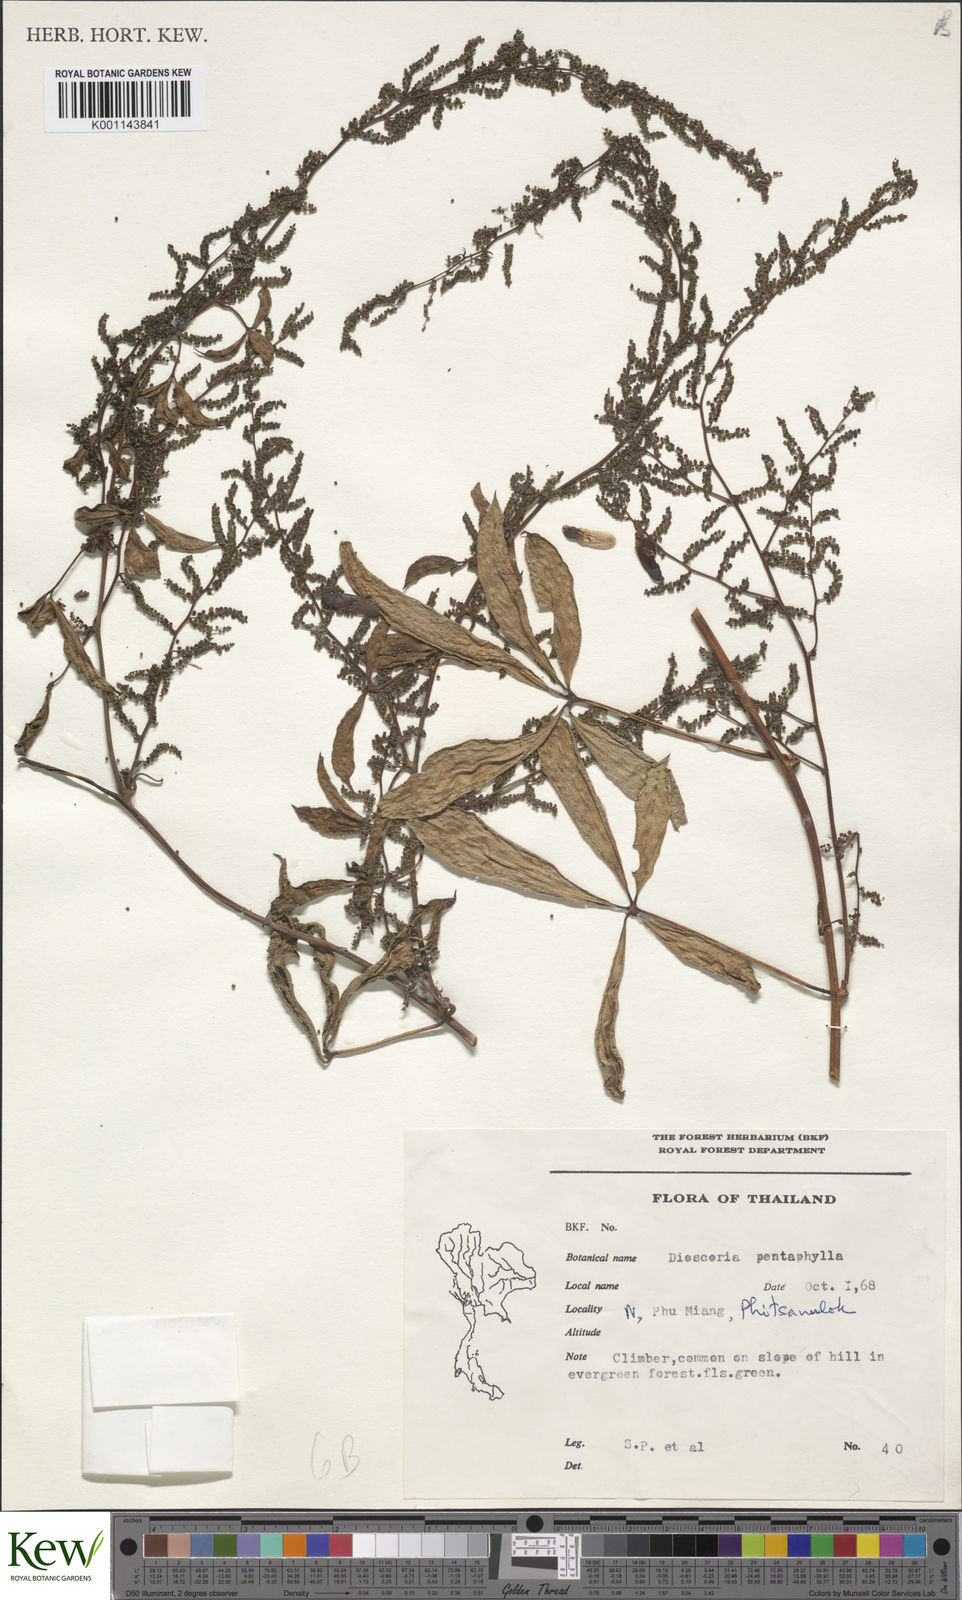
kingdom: Plantae
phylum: Tracheophyta
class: Liliopsida
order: Dioscoreales
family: Dioscoreaceae
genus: Dioscorea
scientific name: Dioscorea pentaphylla
